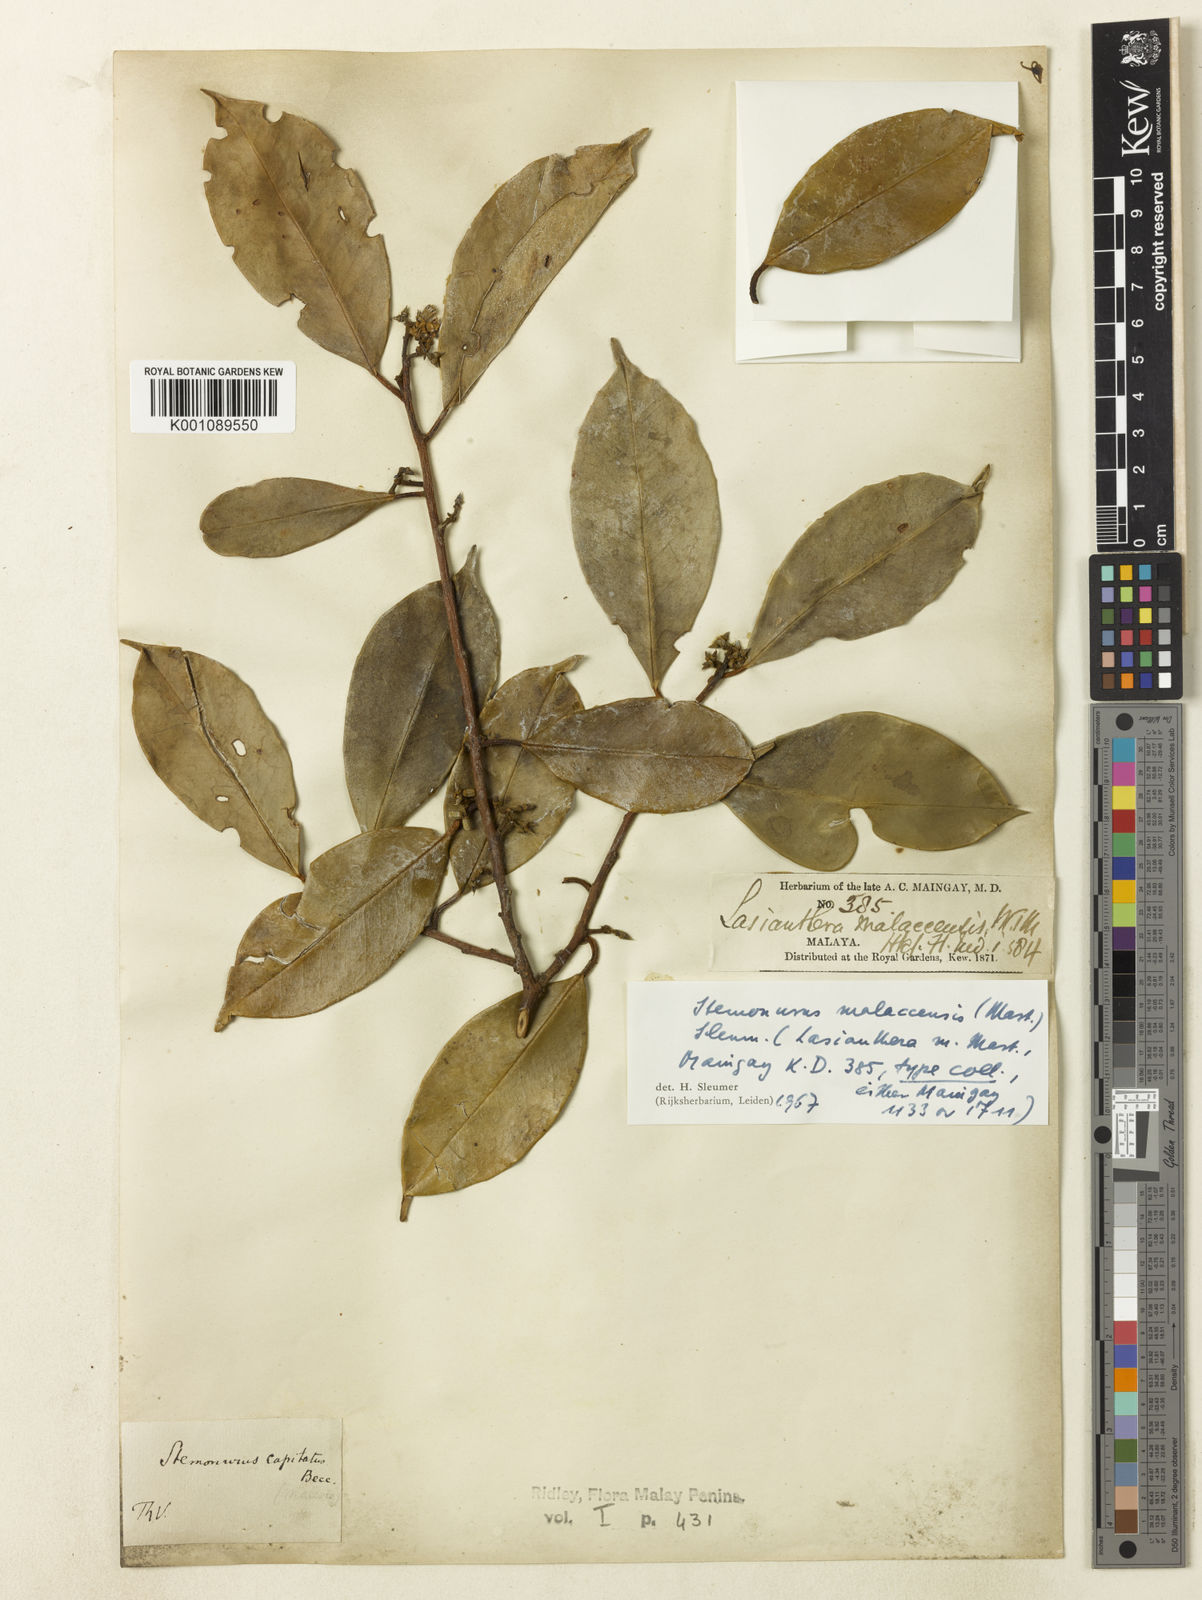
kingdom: Plantae
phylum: Tracheophyta
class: Magnoliopsida
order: Cardiopteridales
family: Stemonuraceae
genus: Stemonurus
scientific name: Stemonurus malaccensis
